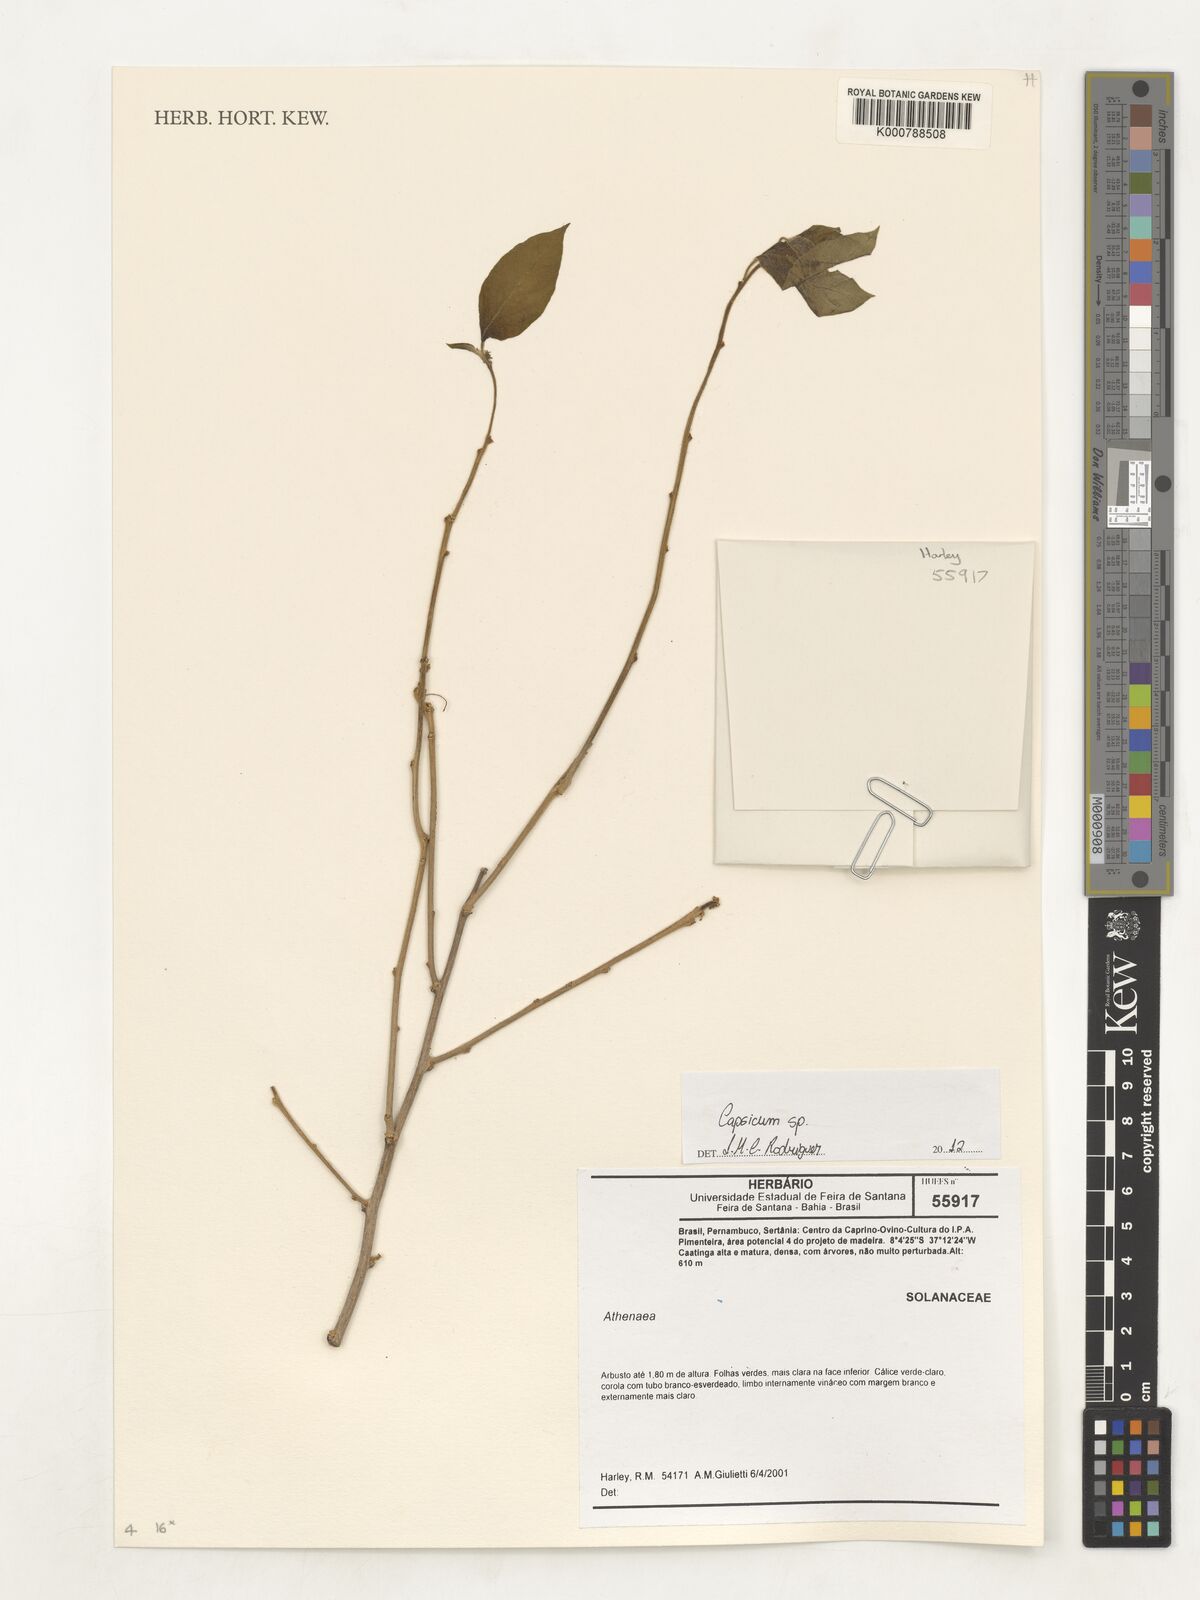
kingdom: Plantae
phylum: Tracheophyta
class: Magnoliopsida
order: Solanales
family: Solanaceae
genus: Capsicum
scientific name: Capsicum
